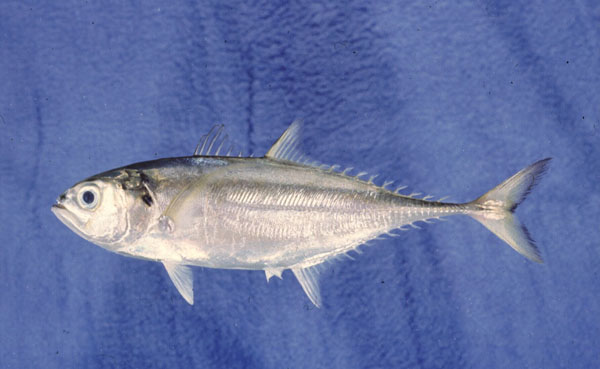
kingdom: Animalia
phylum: Chordata
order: Perciformes
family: Carangidae
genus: Megalaspis
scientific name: Megalaspis cordyla
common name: Torpedo scad
